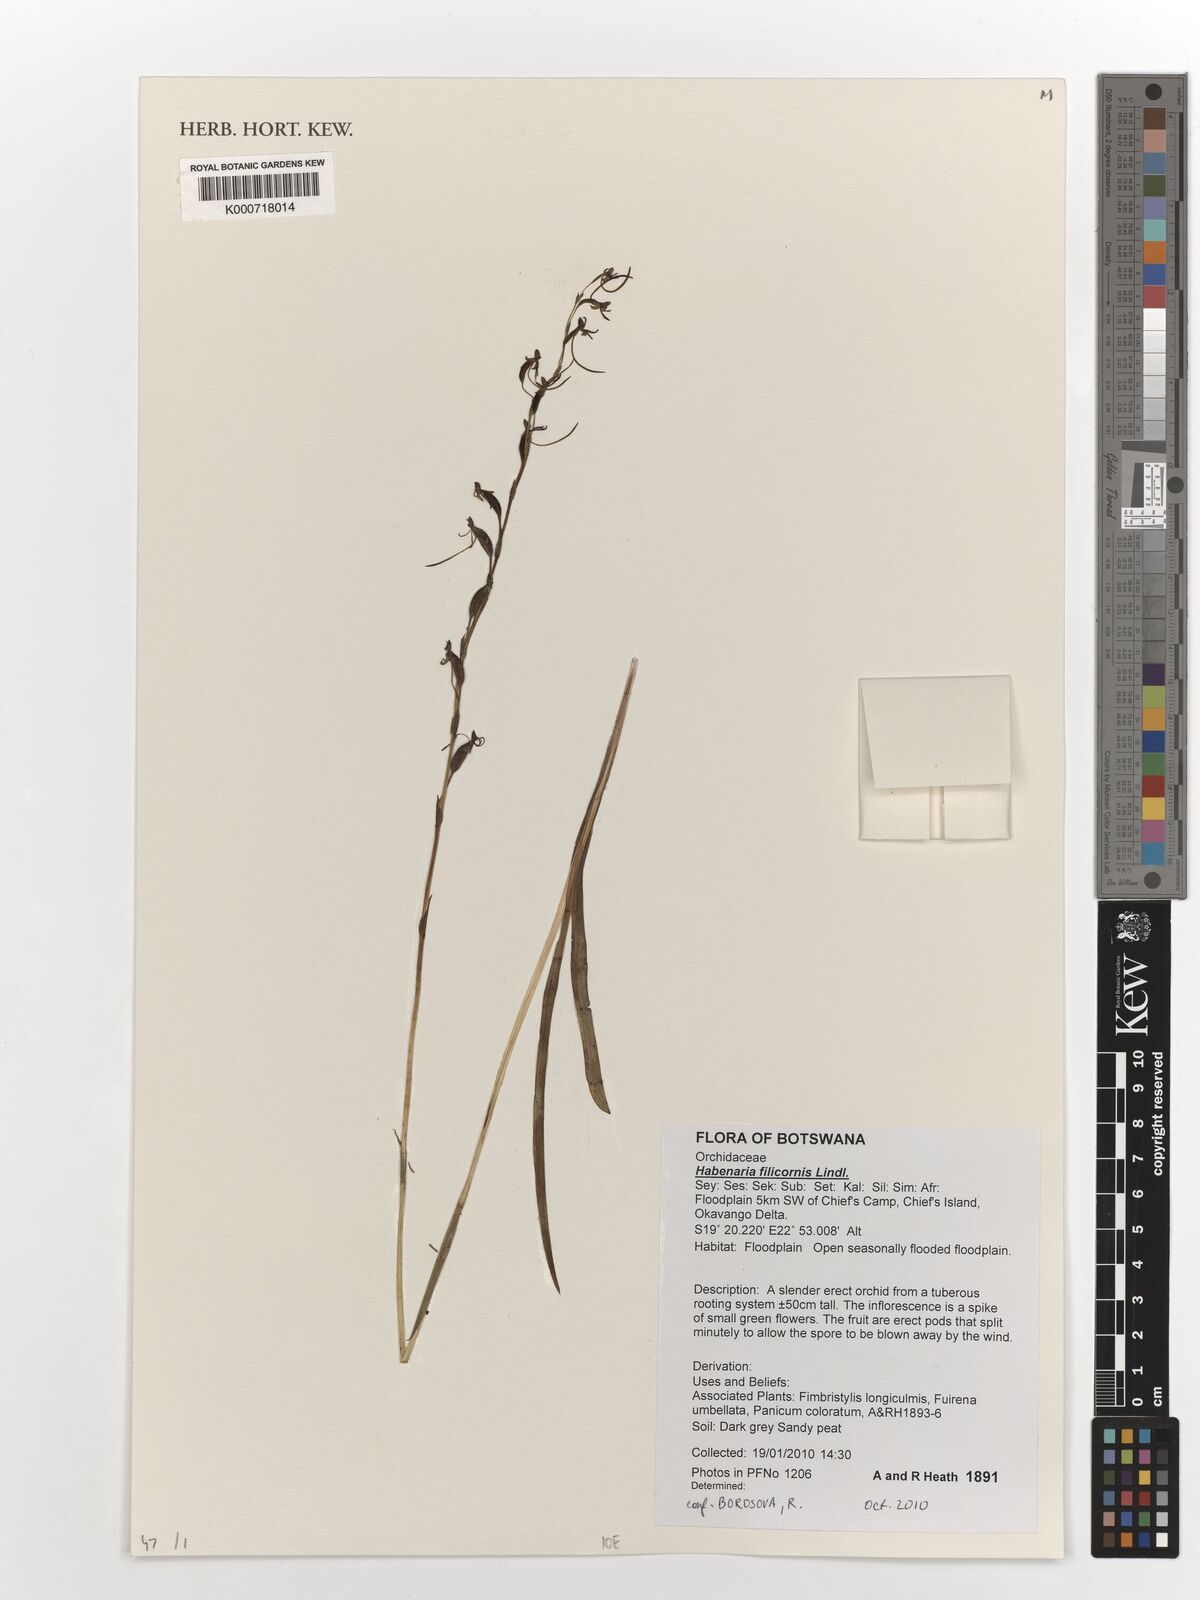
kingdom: Plantae
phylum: Tracheophyta
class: Liliopsida
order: Asparagales
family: Orchidaceae
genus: Habenaria
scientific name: Habenaria filicornis
